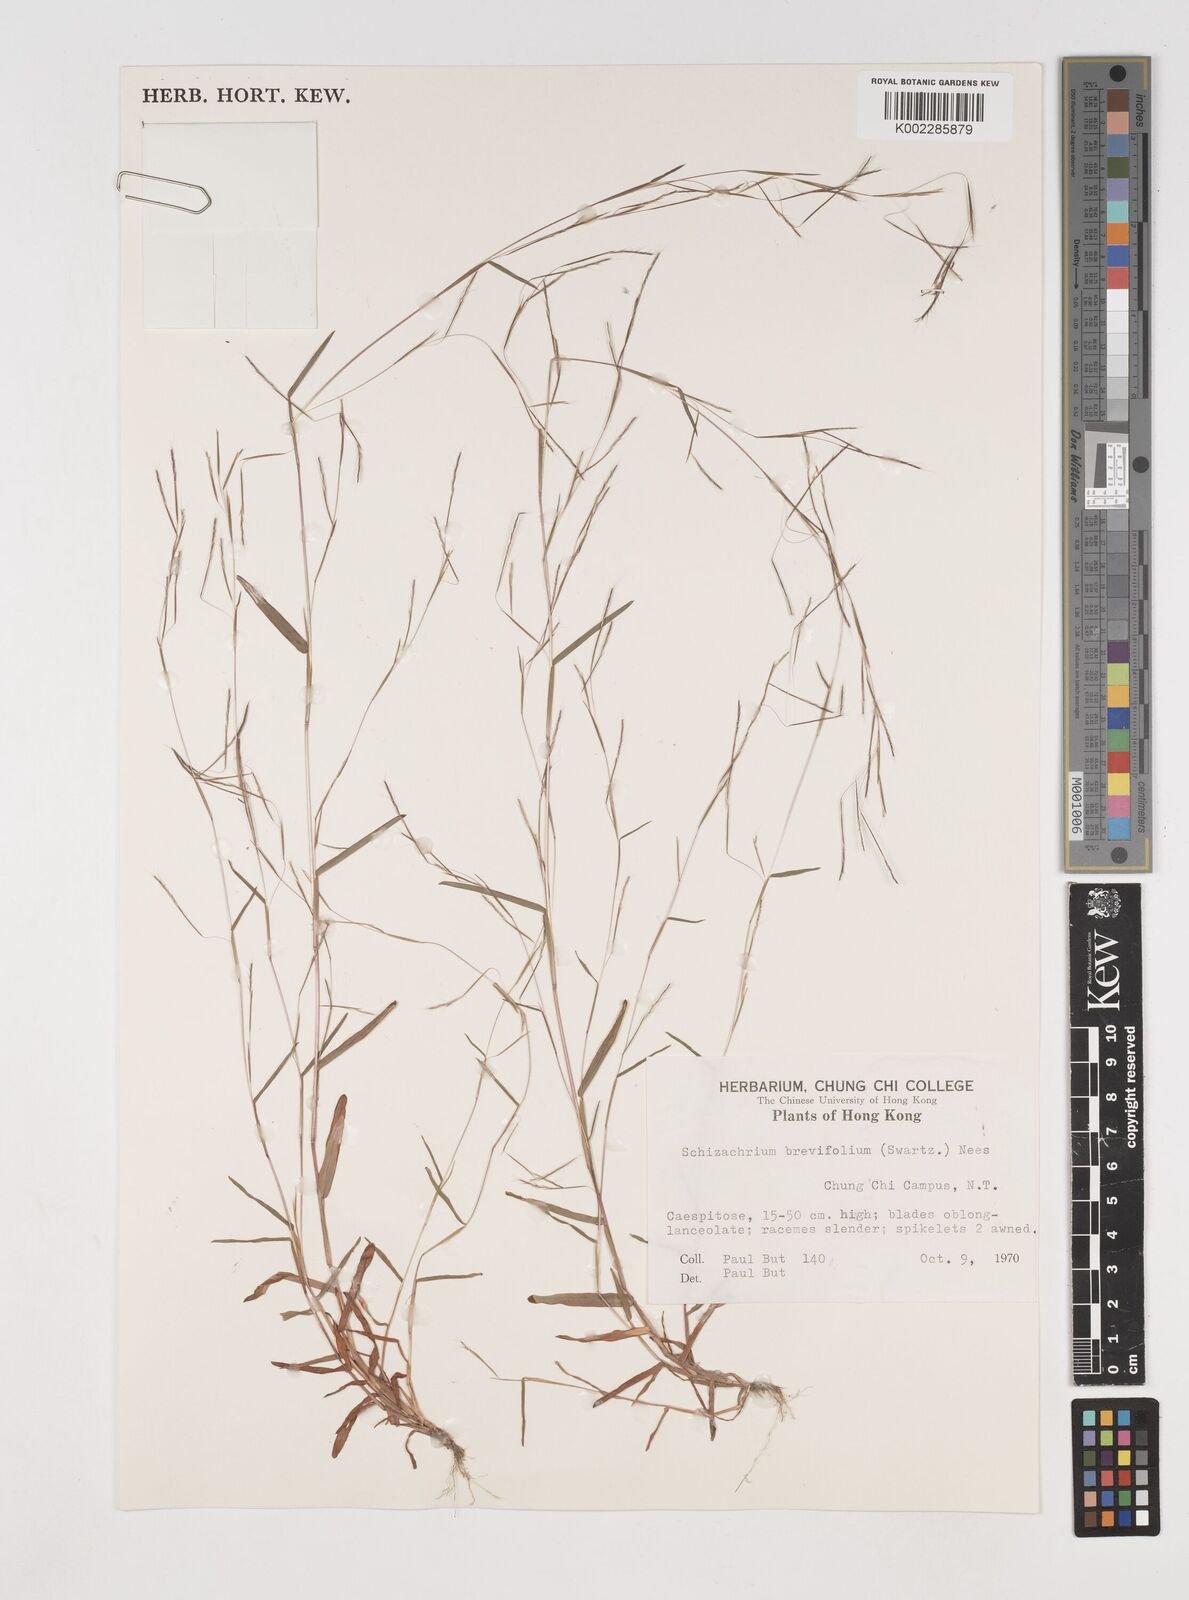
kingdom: Plantae
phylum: Tracheophyta
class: Liliopsida
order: Poales
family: Poaceae
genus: Schizachyrium
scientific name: Schizachyrium brevifolium
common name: Serillo dulce
